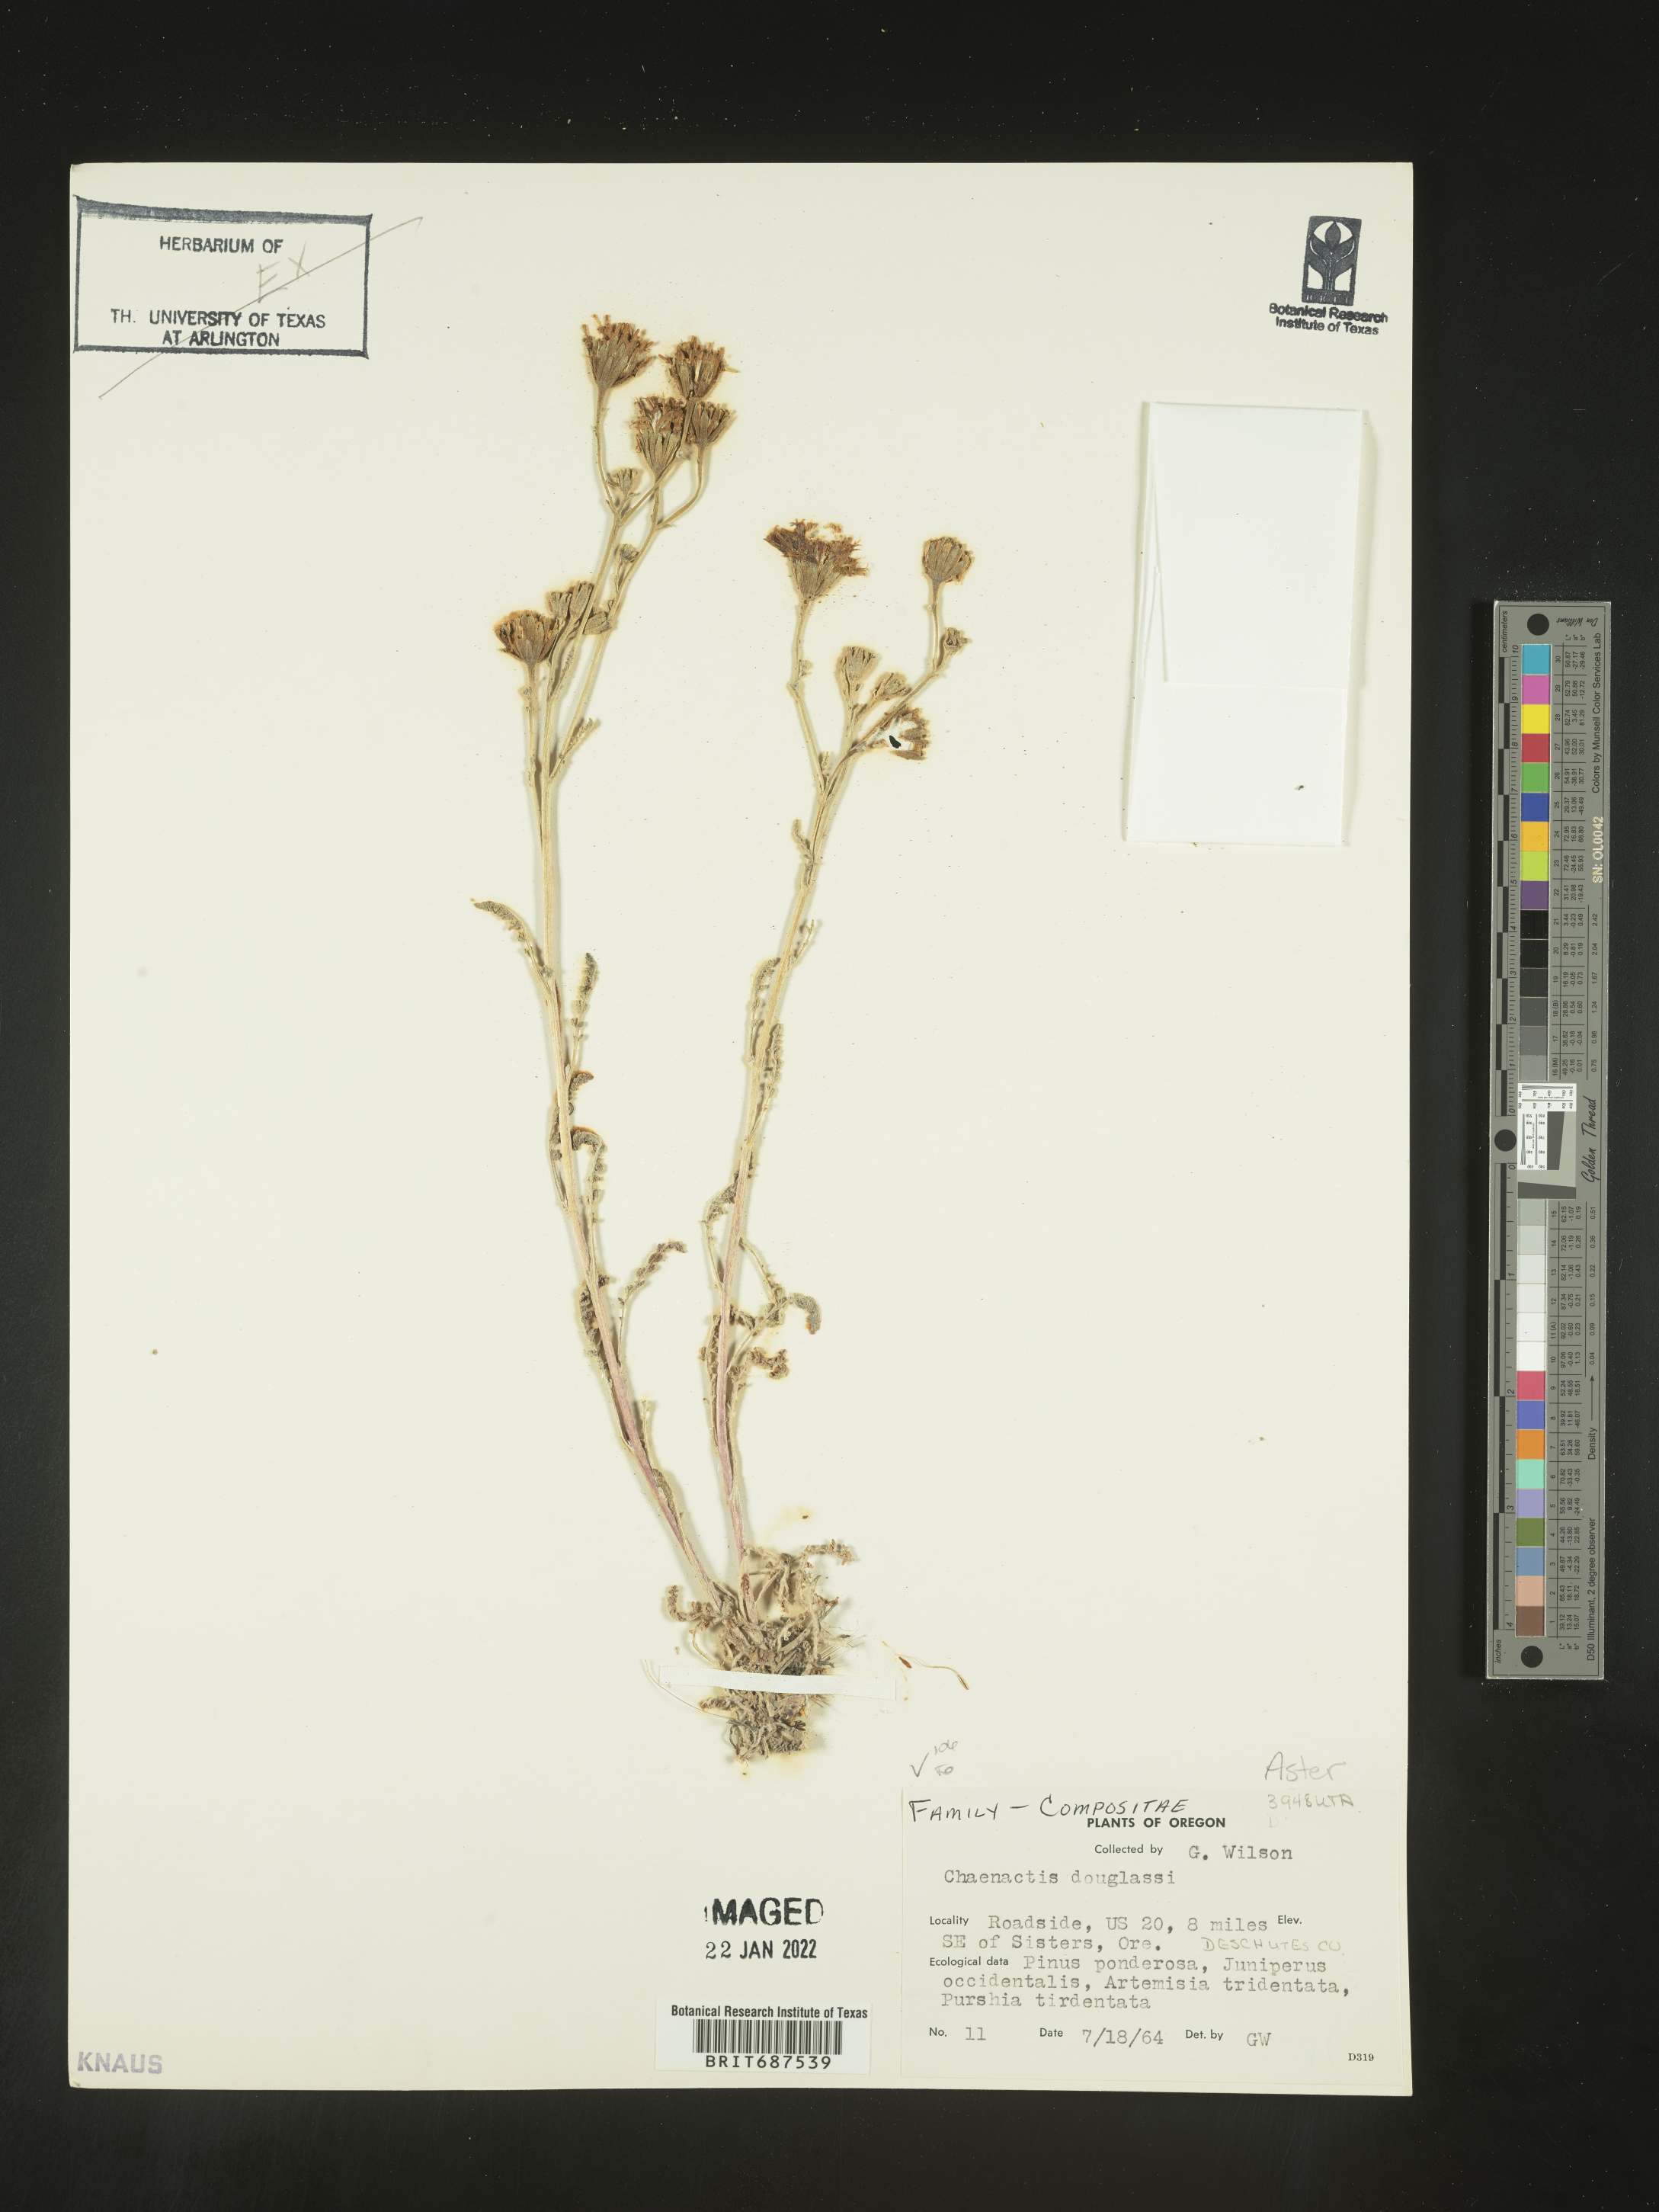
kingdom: Plantae
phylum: Tracheophyta
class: Magnoliopsida
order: Asterales
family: Asteraceae
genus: Chaenactis
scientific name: Chaenactis douglasii
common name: Hoary pincushion
